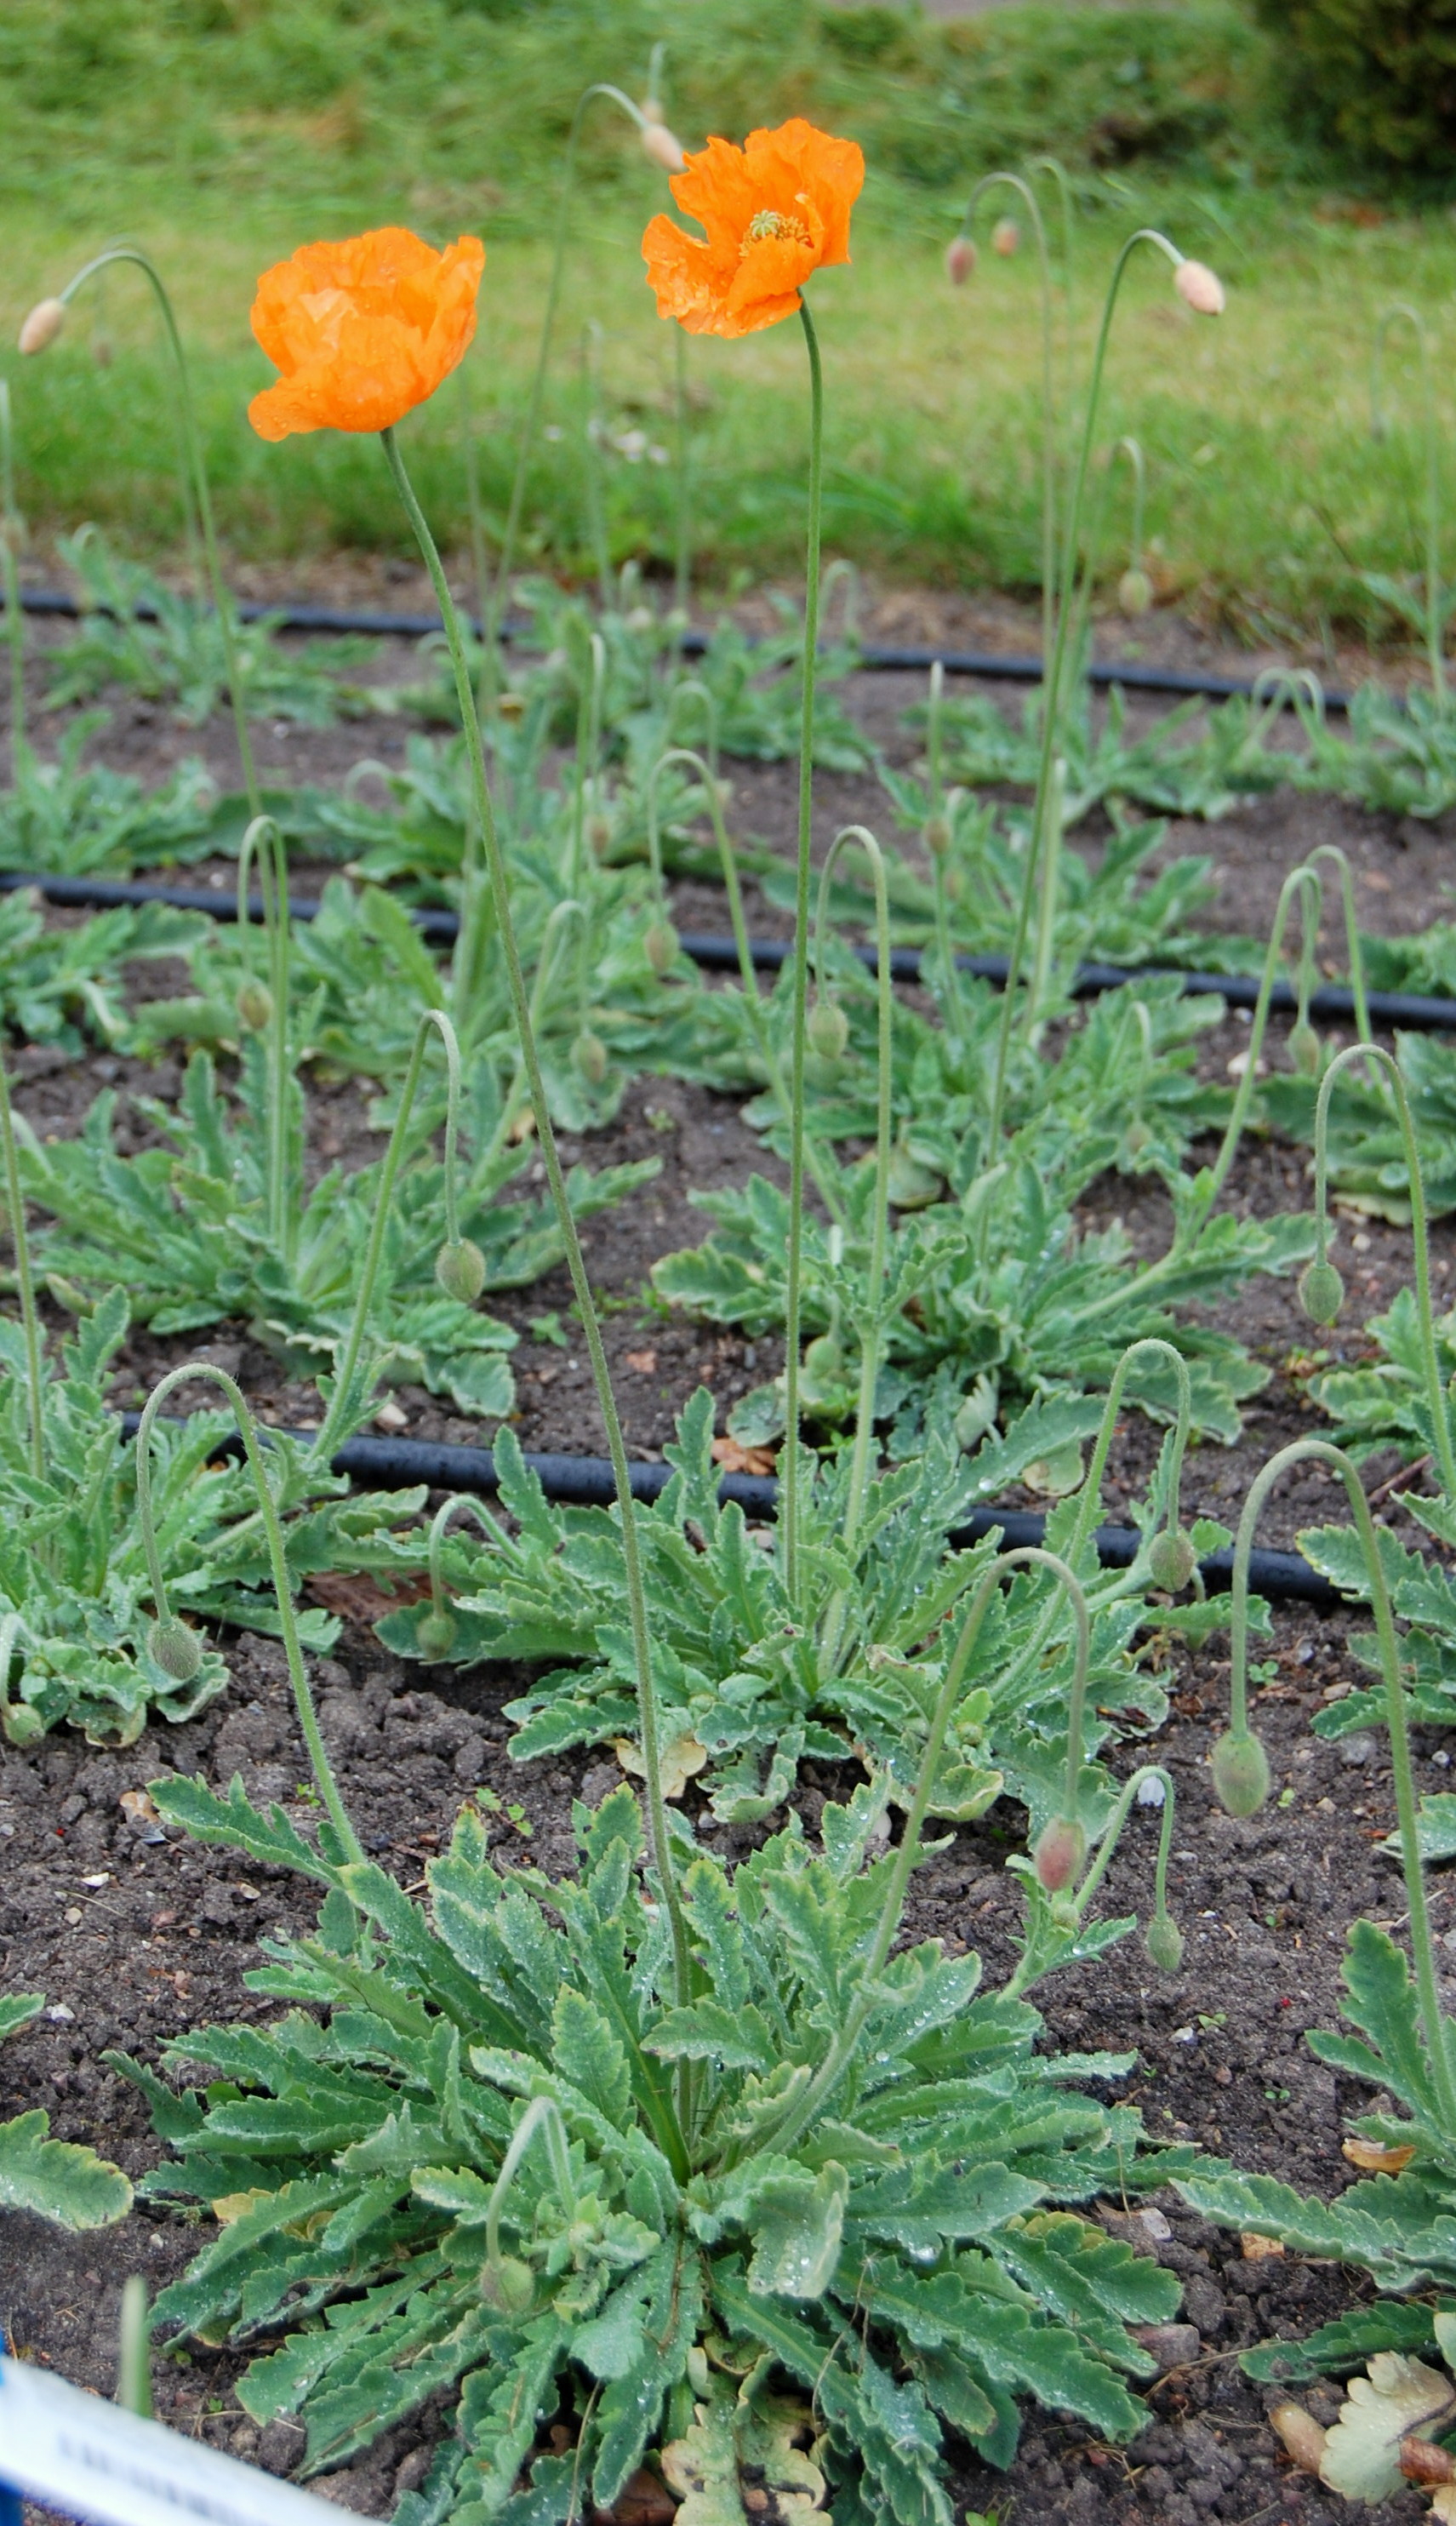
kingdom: Plantae
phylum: Tracheophyta
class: Magnoliopsida
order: Ranunculales
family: Papaveraceae
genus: Papaver
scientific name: Papaver atlanticum
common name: Atlas poppy
